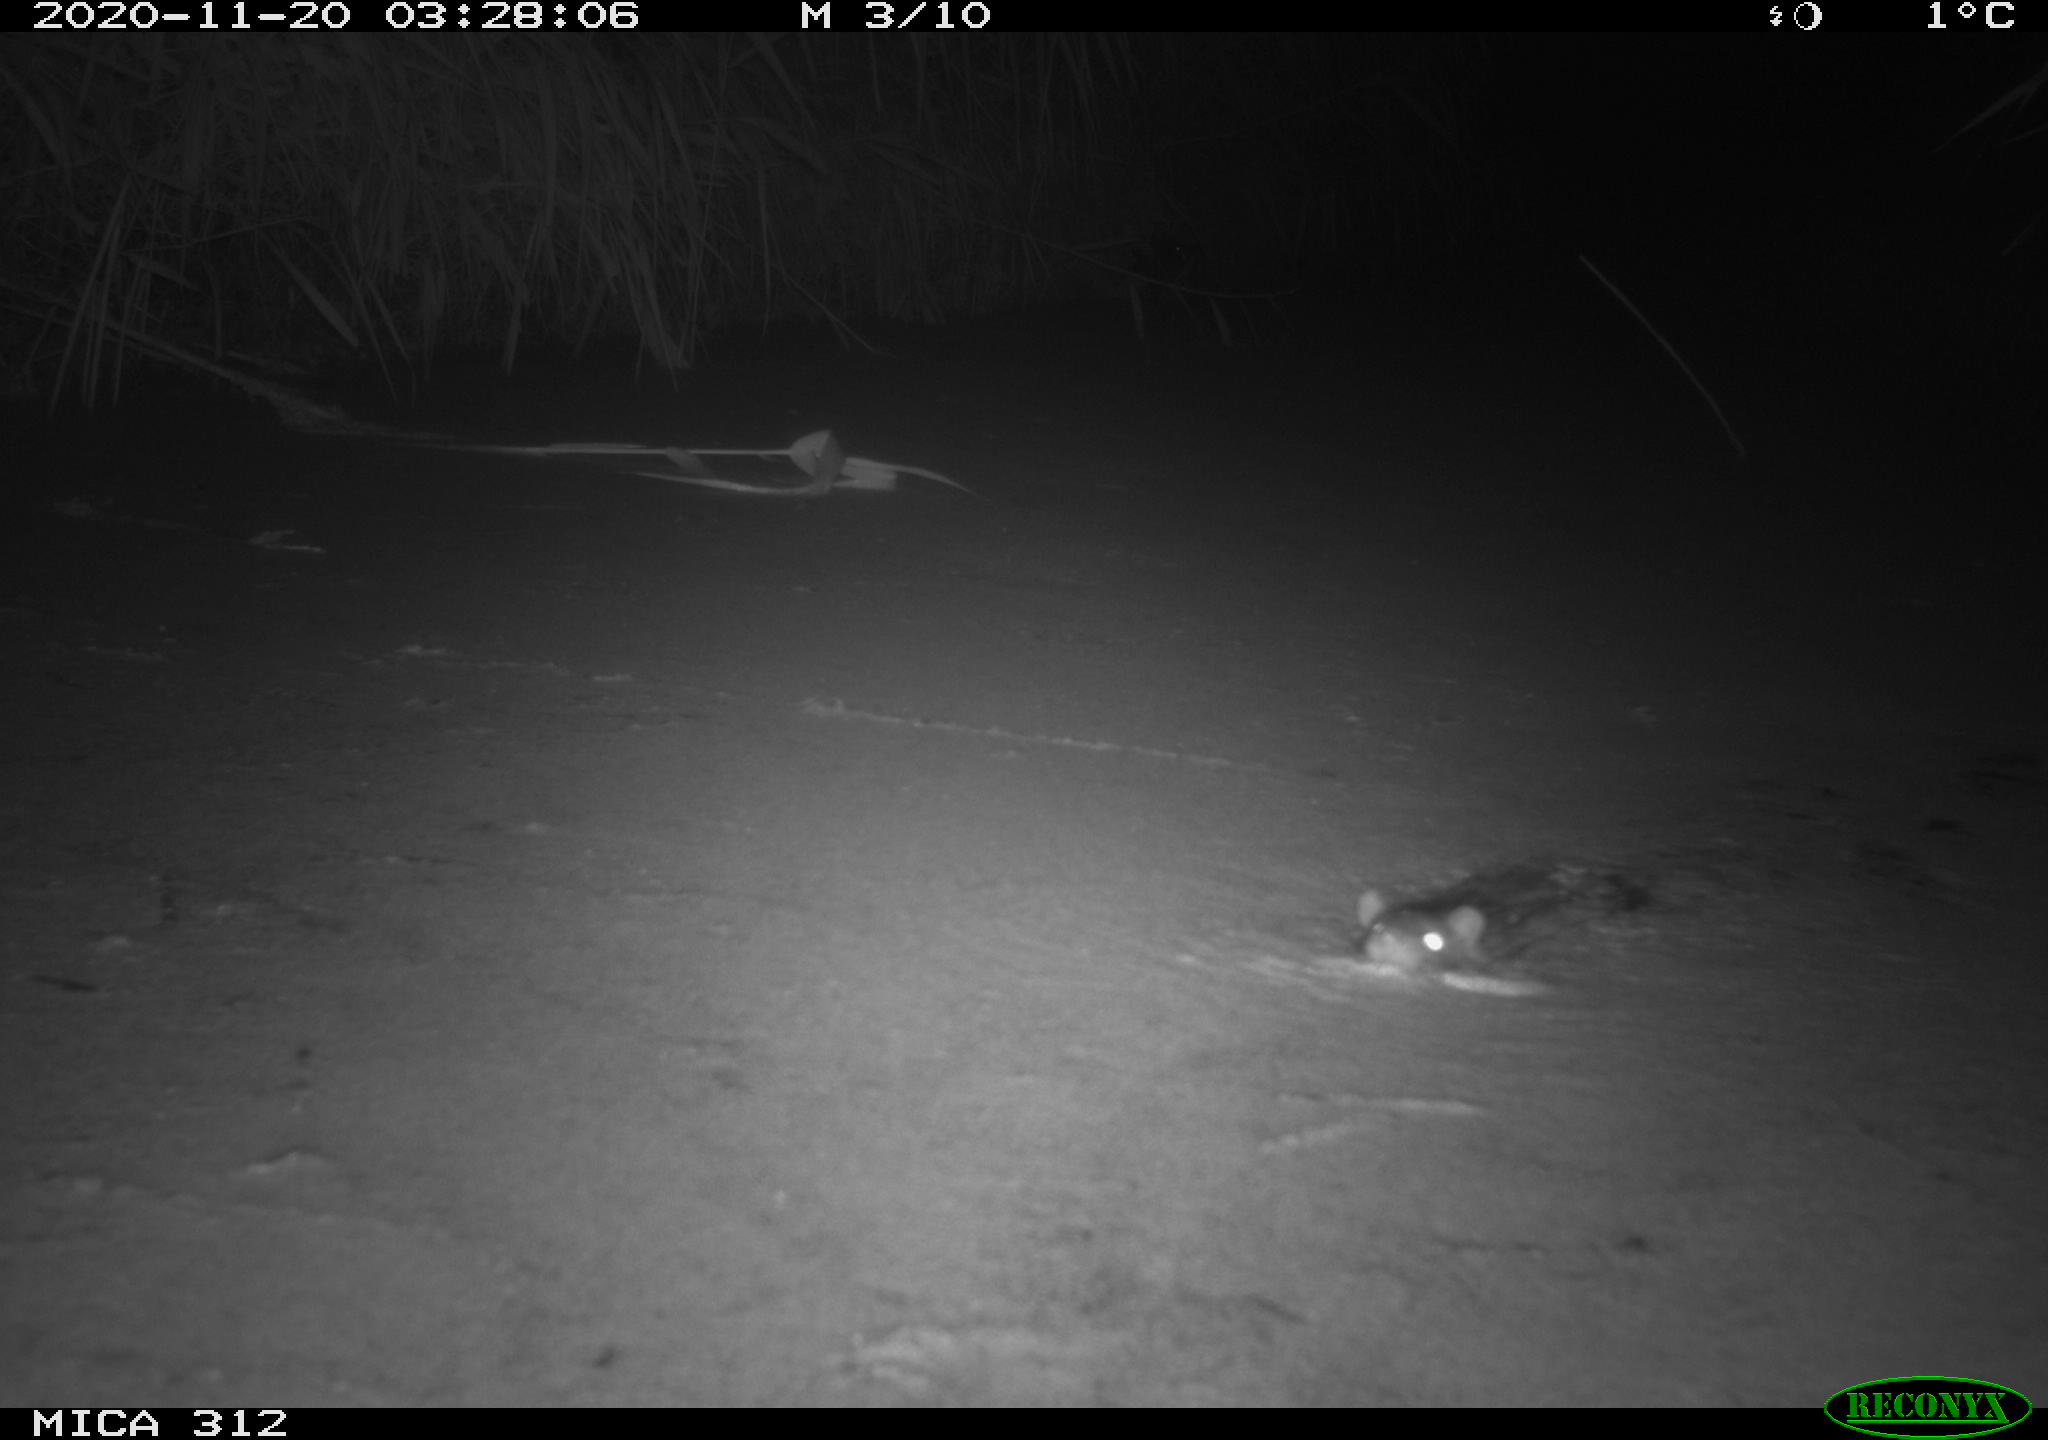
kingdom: Animalia
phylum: Chordata
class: Mammalia
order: Rodentia
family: Muridae
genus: Rattus
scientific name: Rattus norvegicus
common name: Brown rat
